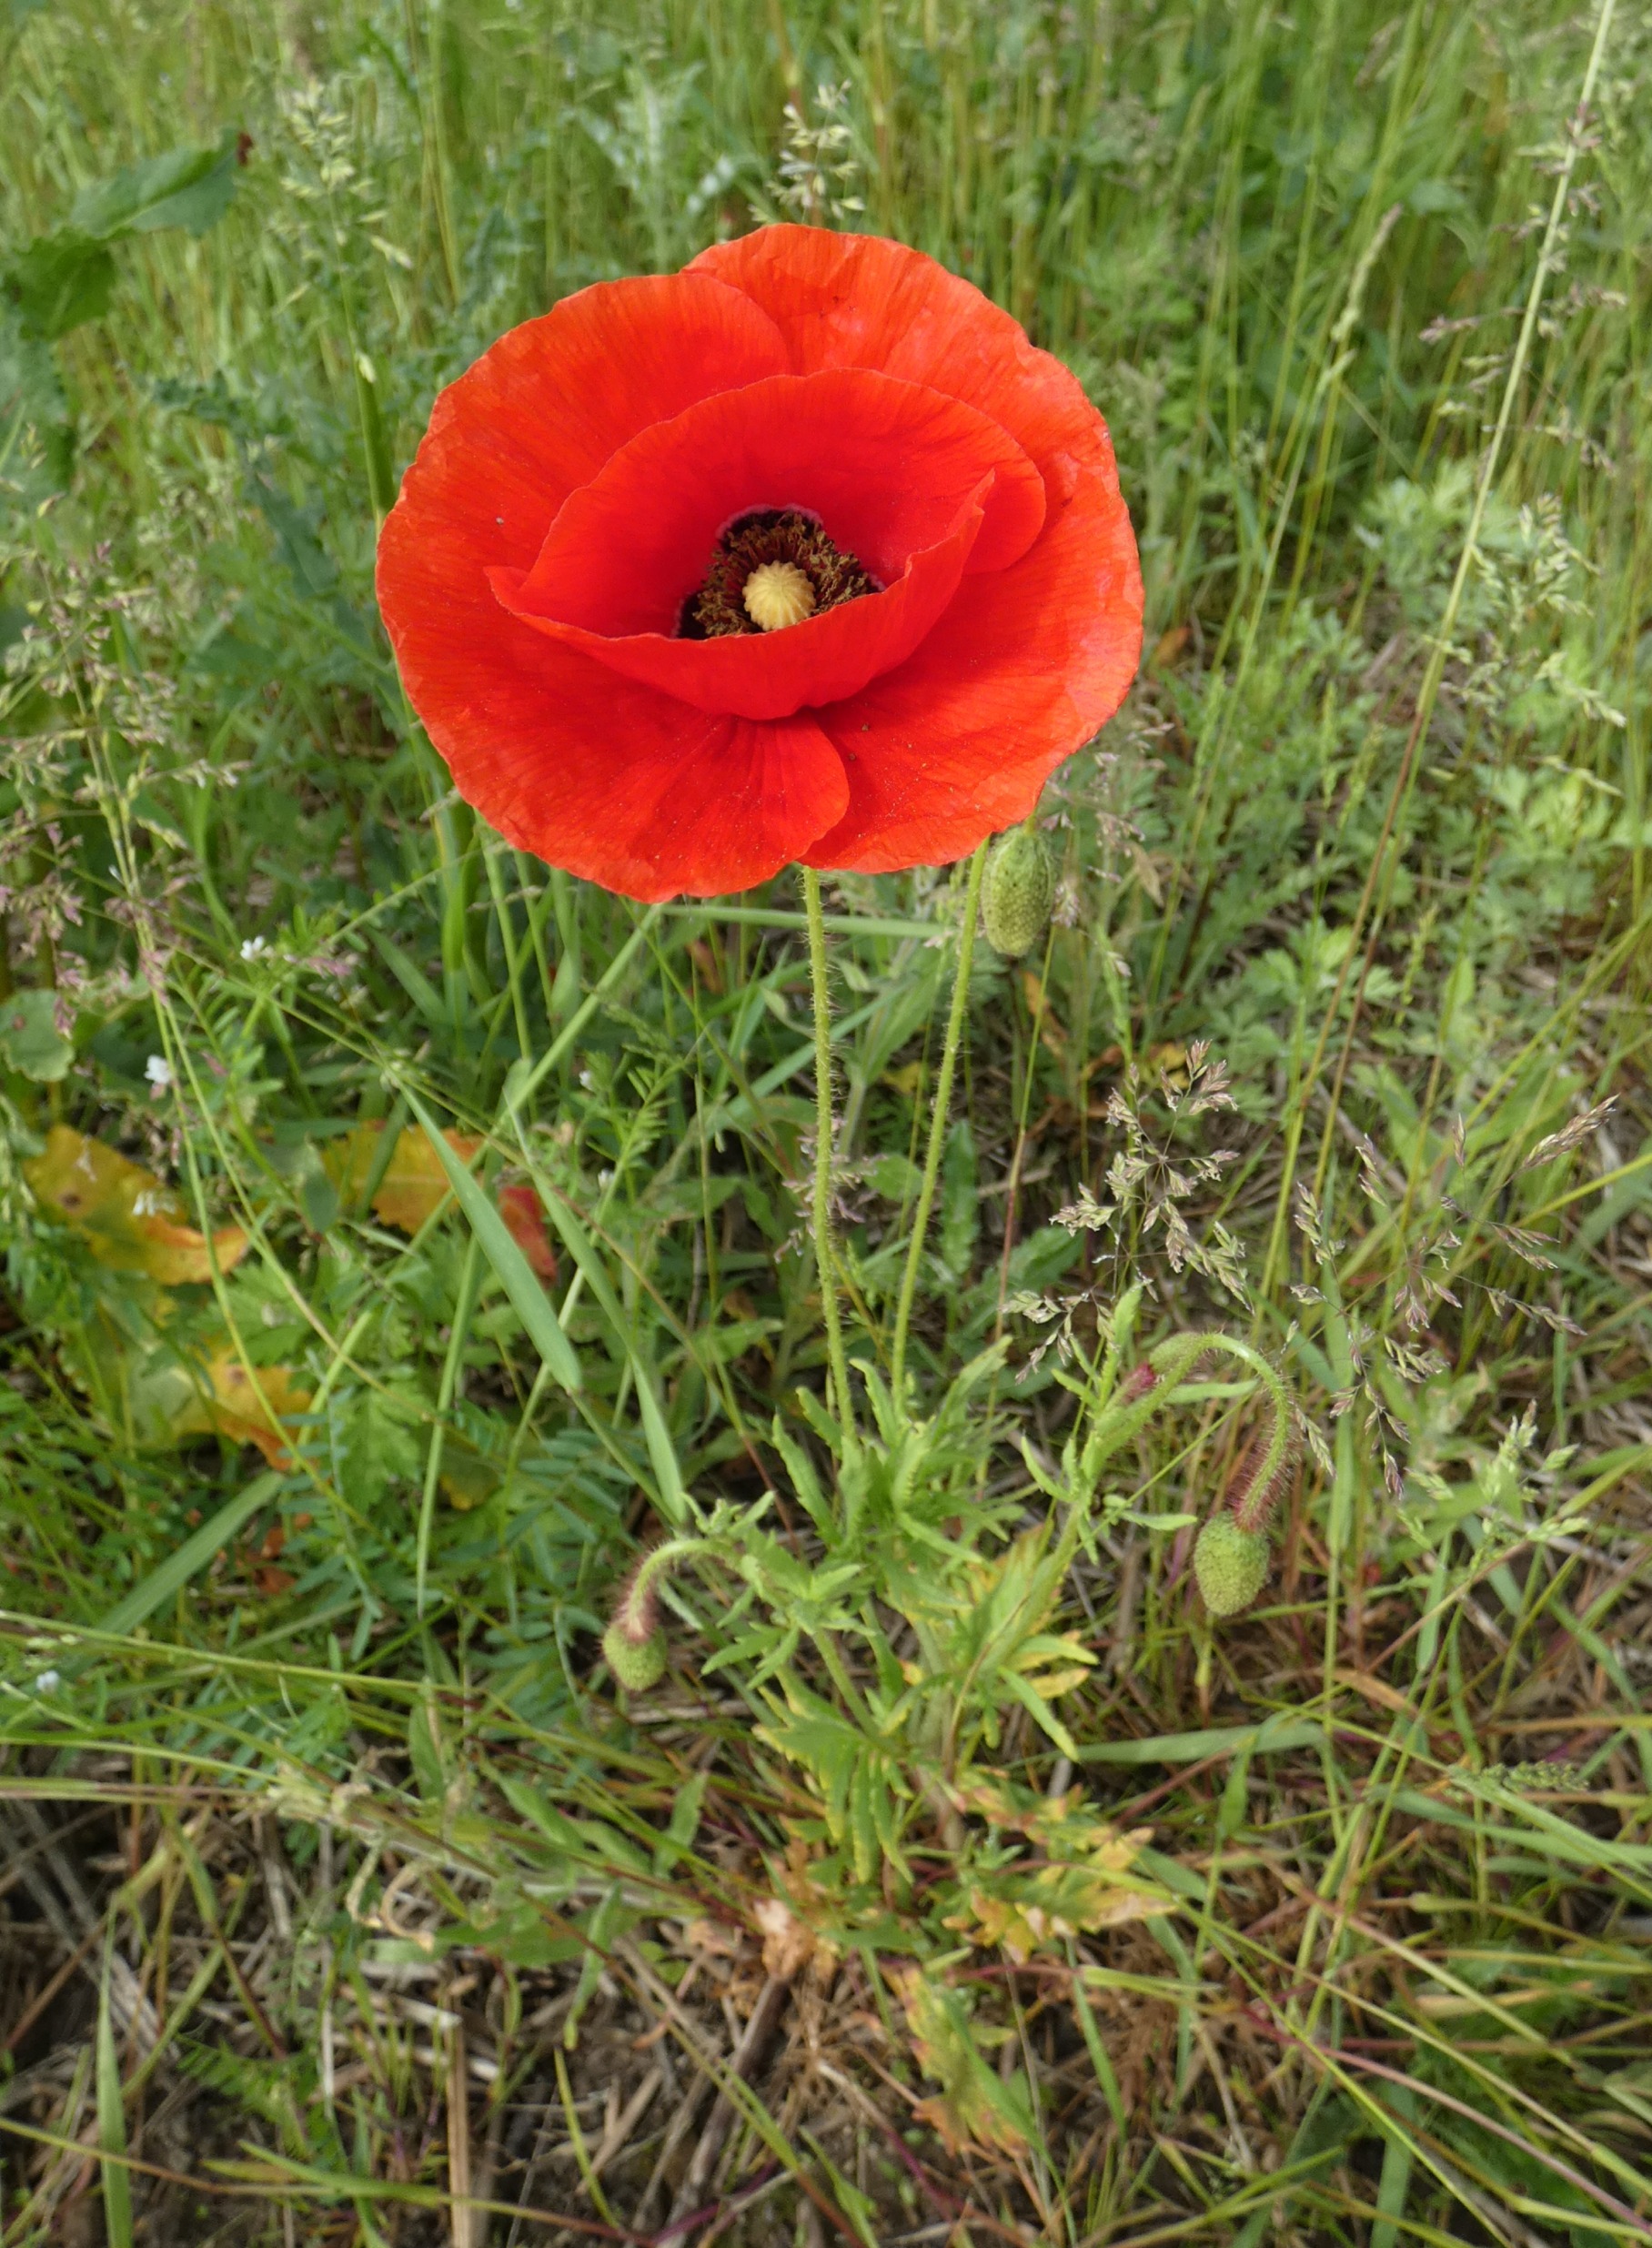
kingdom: Plantae
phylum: Tracheophyta
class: Magnoliopsida
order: Ranunculales
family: Papaveraceae
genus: Papaver
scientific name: Papaver rhoeas
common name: Korn-valmue
